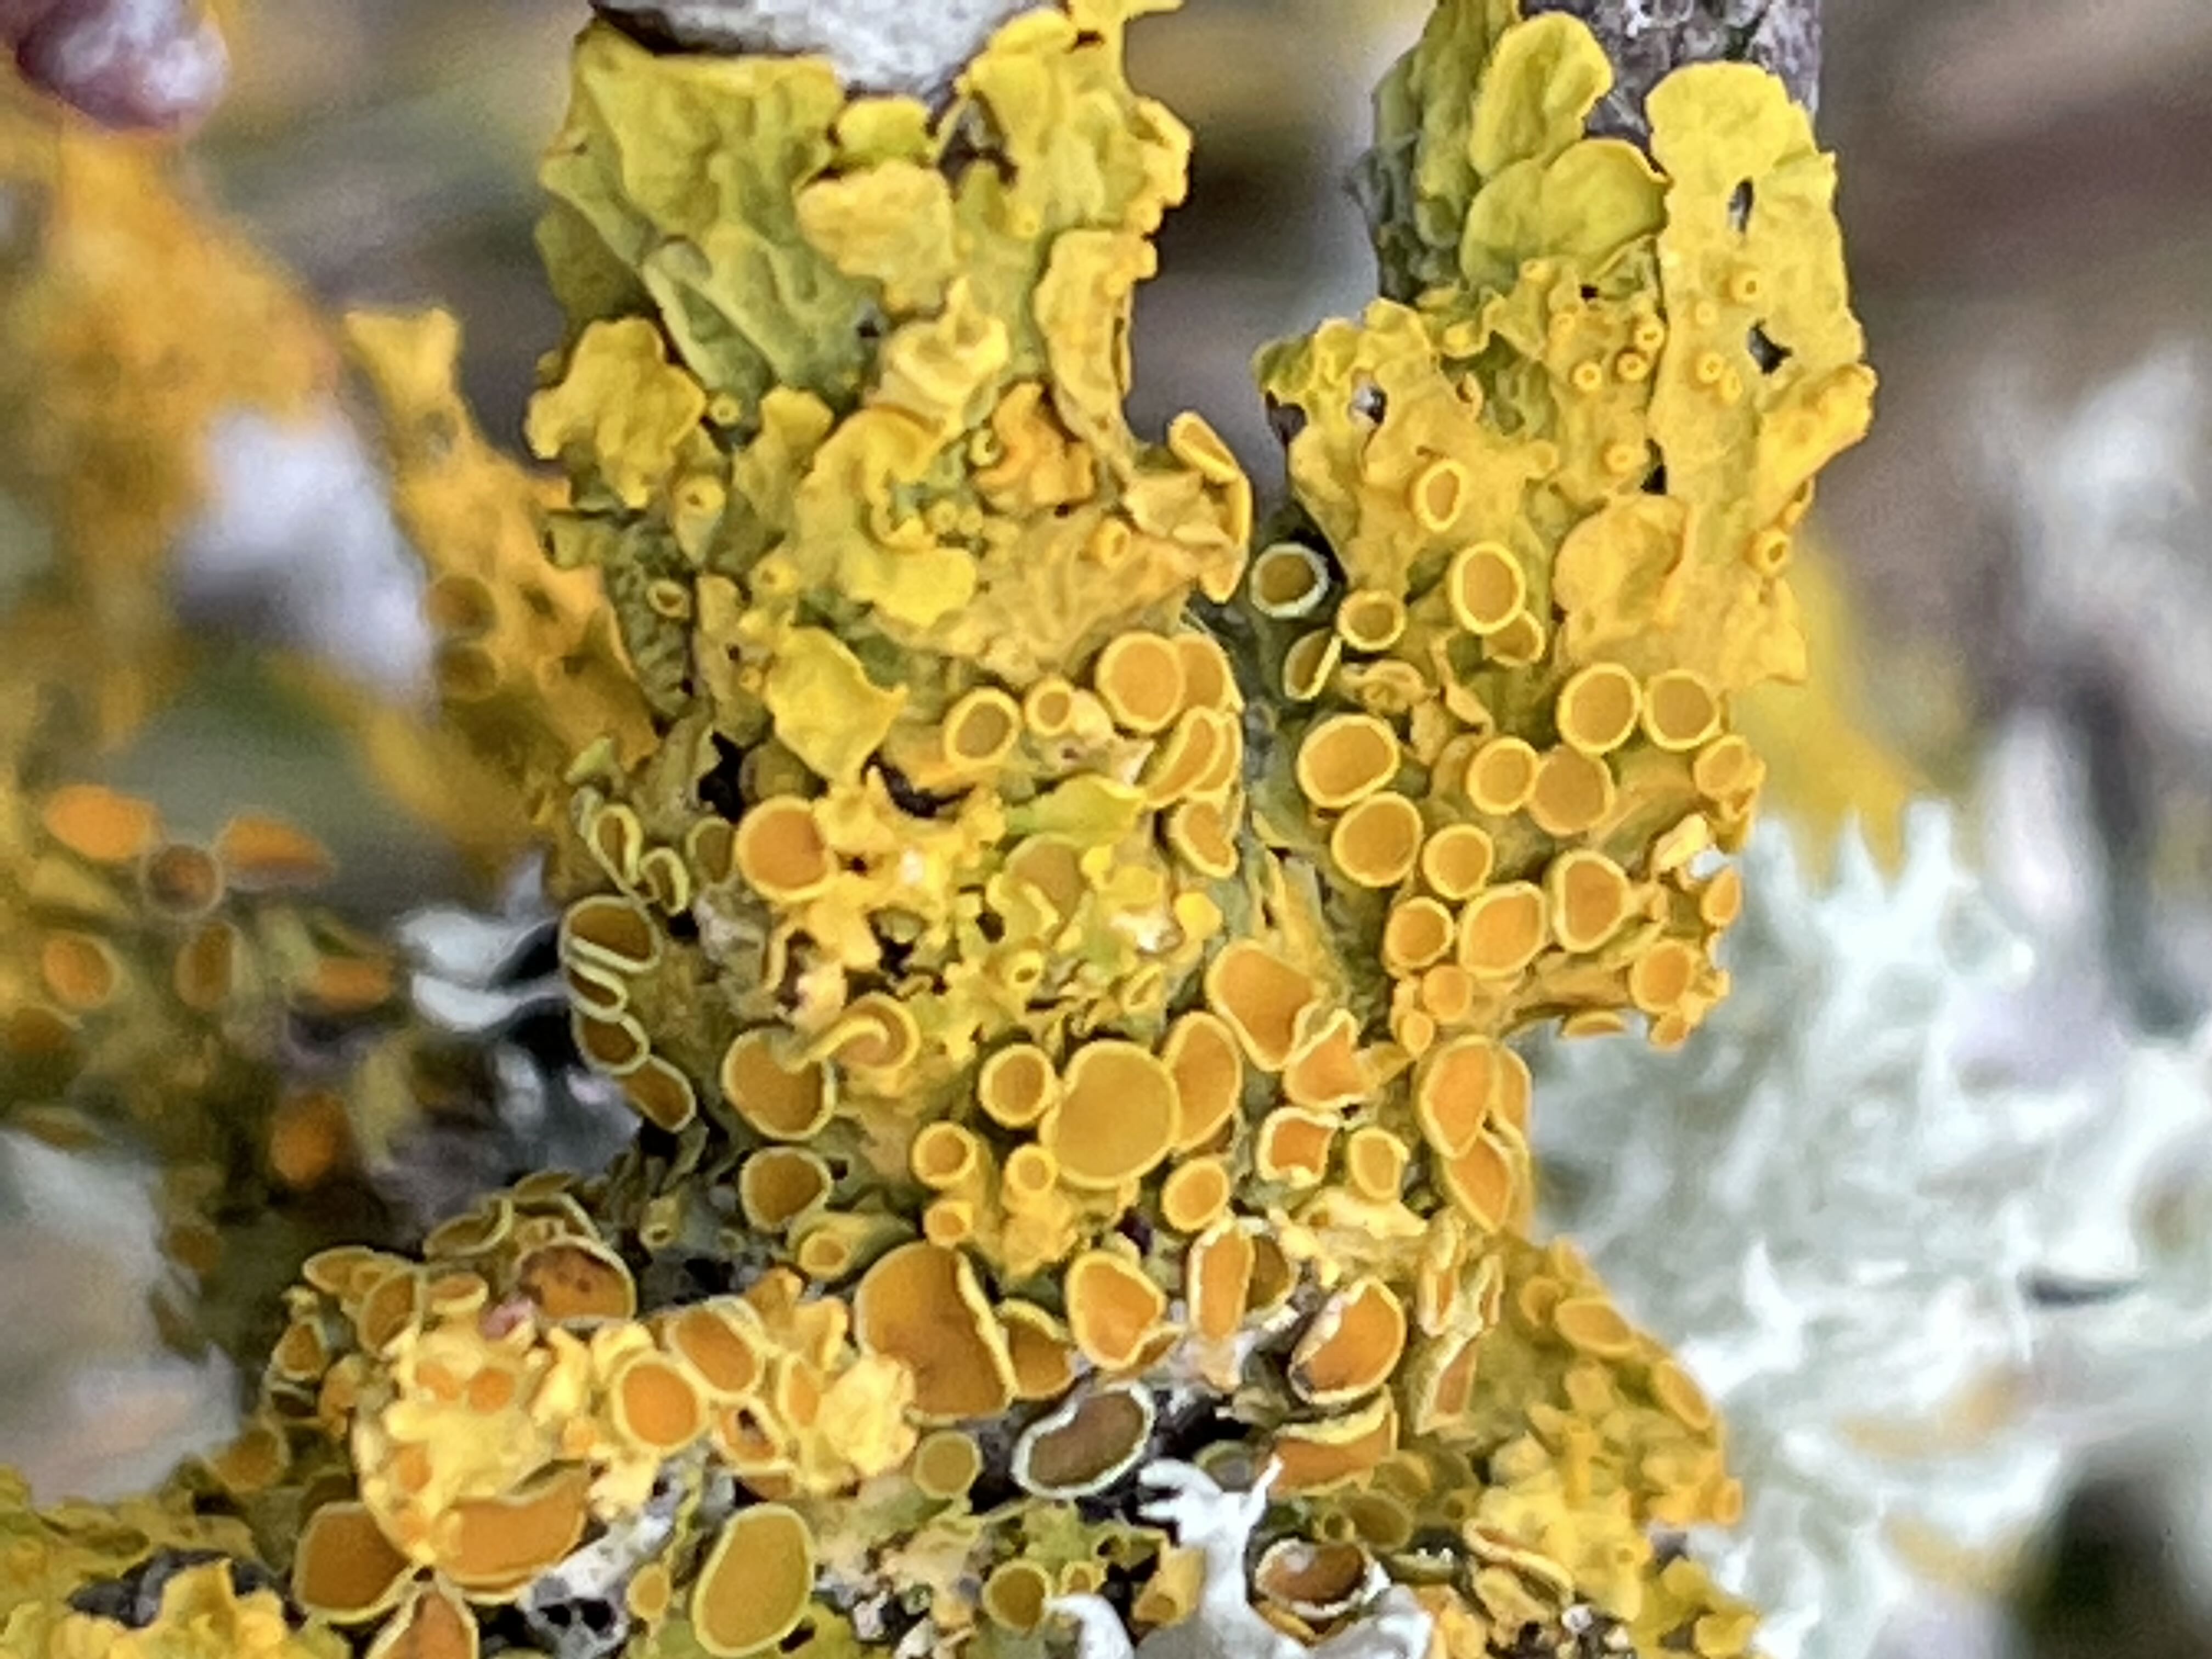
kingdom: Fungi
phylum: Ascomycota
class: Lecanoromycetes
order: Teloschistales
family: Teloschistaceae
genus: Xanthoria
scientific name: Xanthoria parietina
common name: almindelig væggelav
